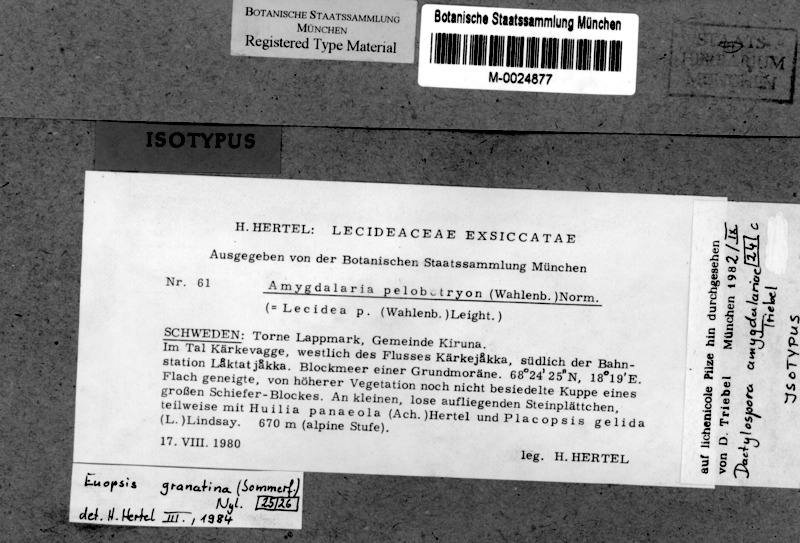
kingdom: Fungi
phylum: Ascomycota
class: Lecanoromycetes
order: Lecideales
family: Lecideaceae
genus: Amygdalaria
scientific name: Amygdalaria pelobotryon
